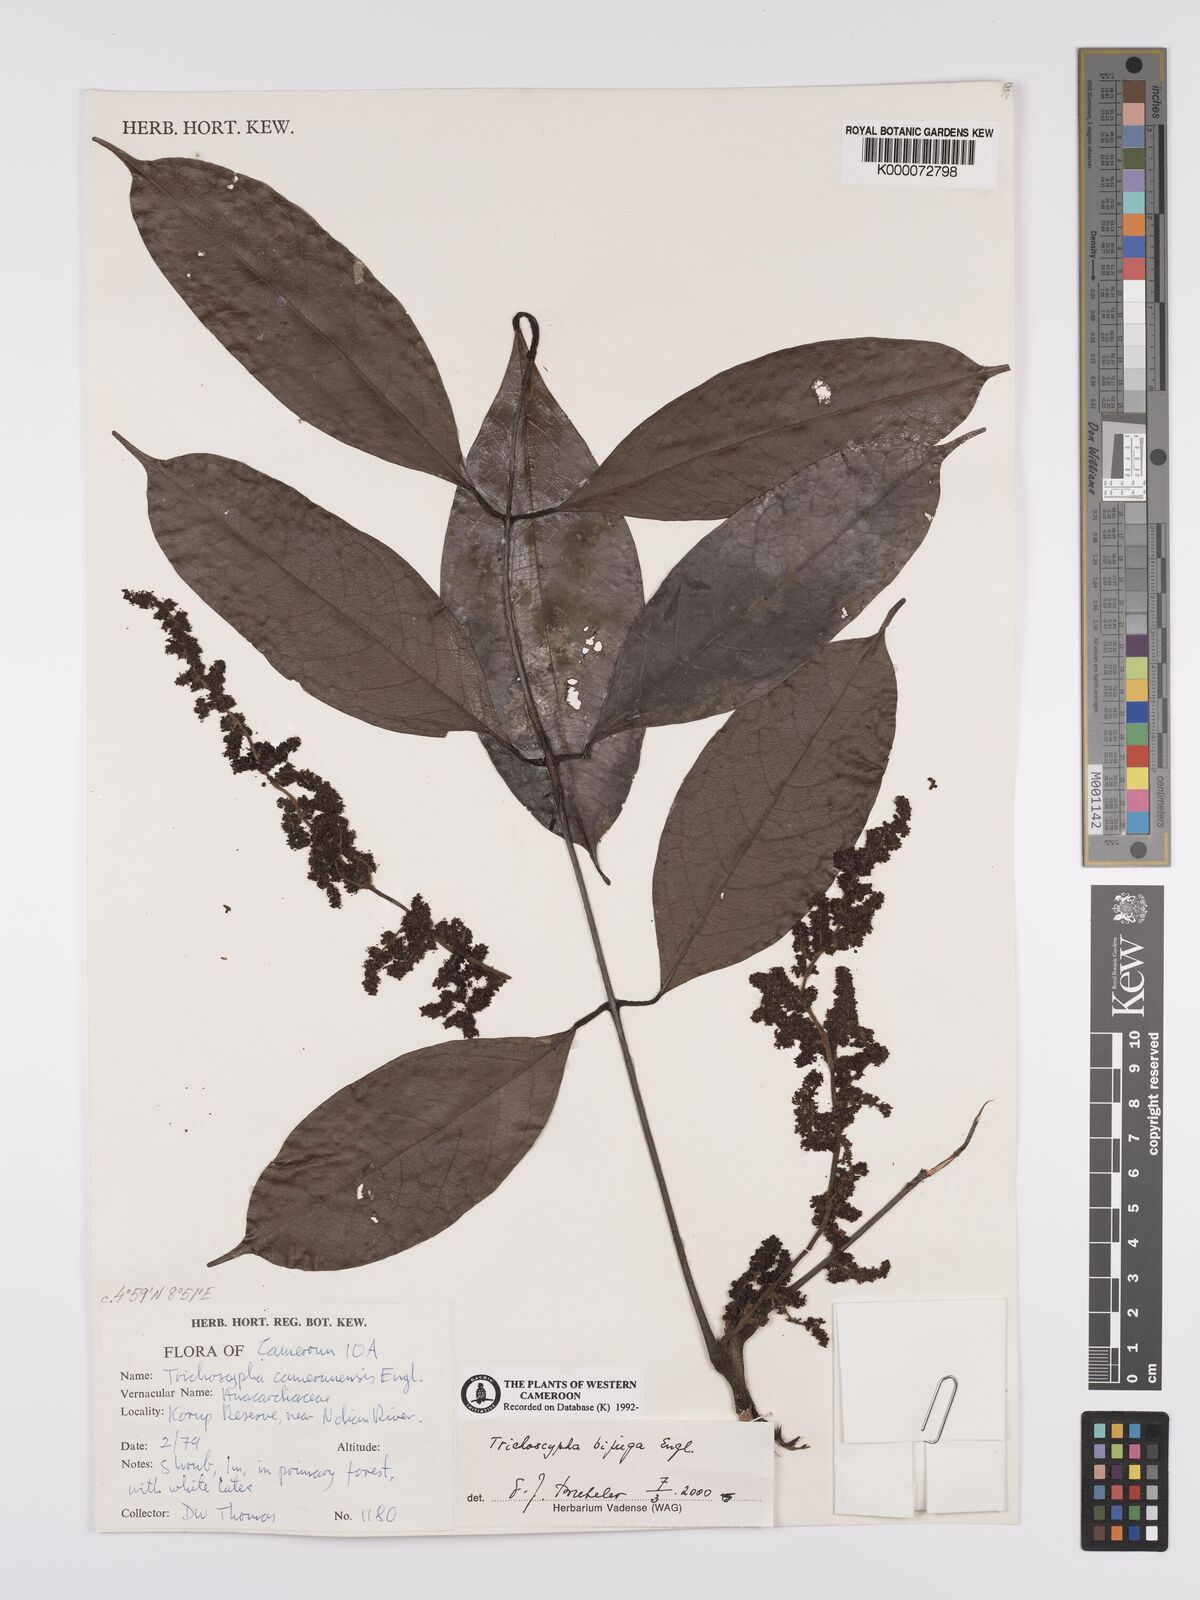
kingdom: Plantae
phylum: Tracheophyta
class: Magnoliopsida
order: Sapindales
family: Anacardiaceae
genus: Trichoscypha
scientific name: Trichoscypha bijuga
